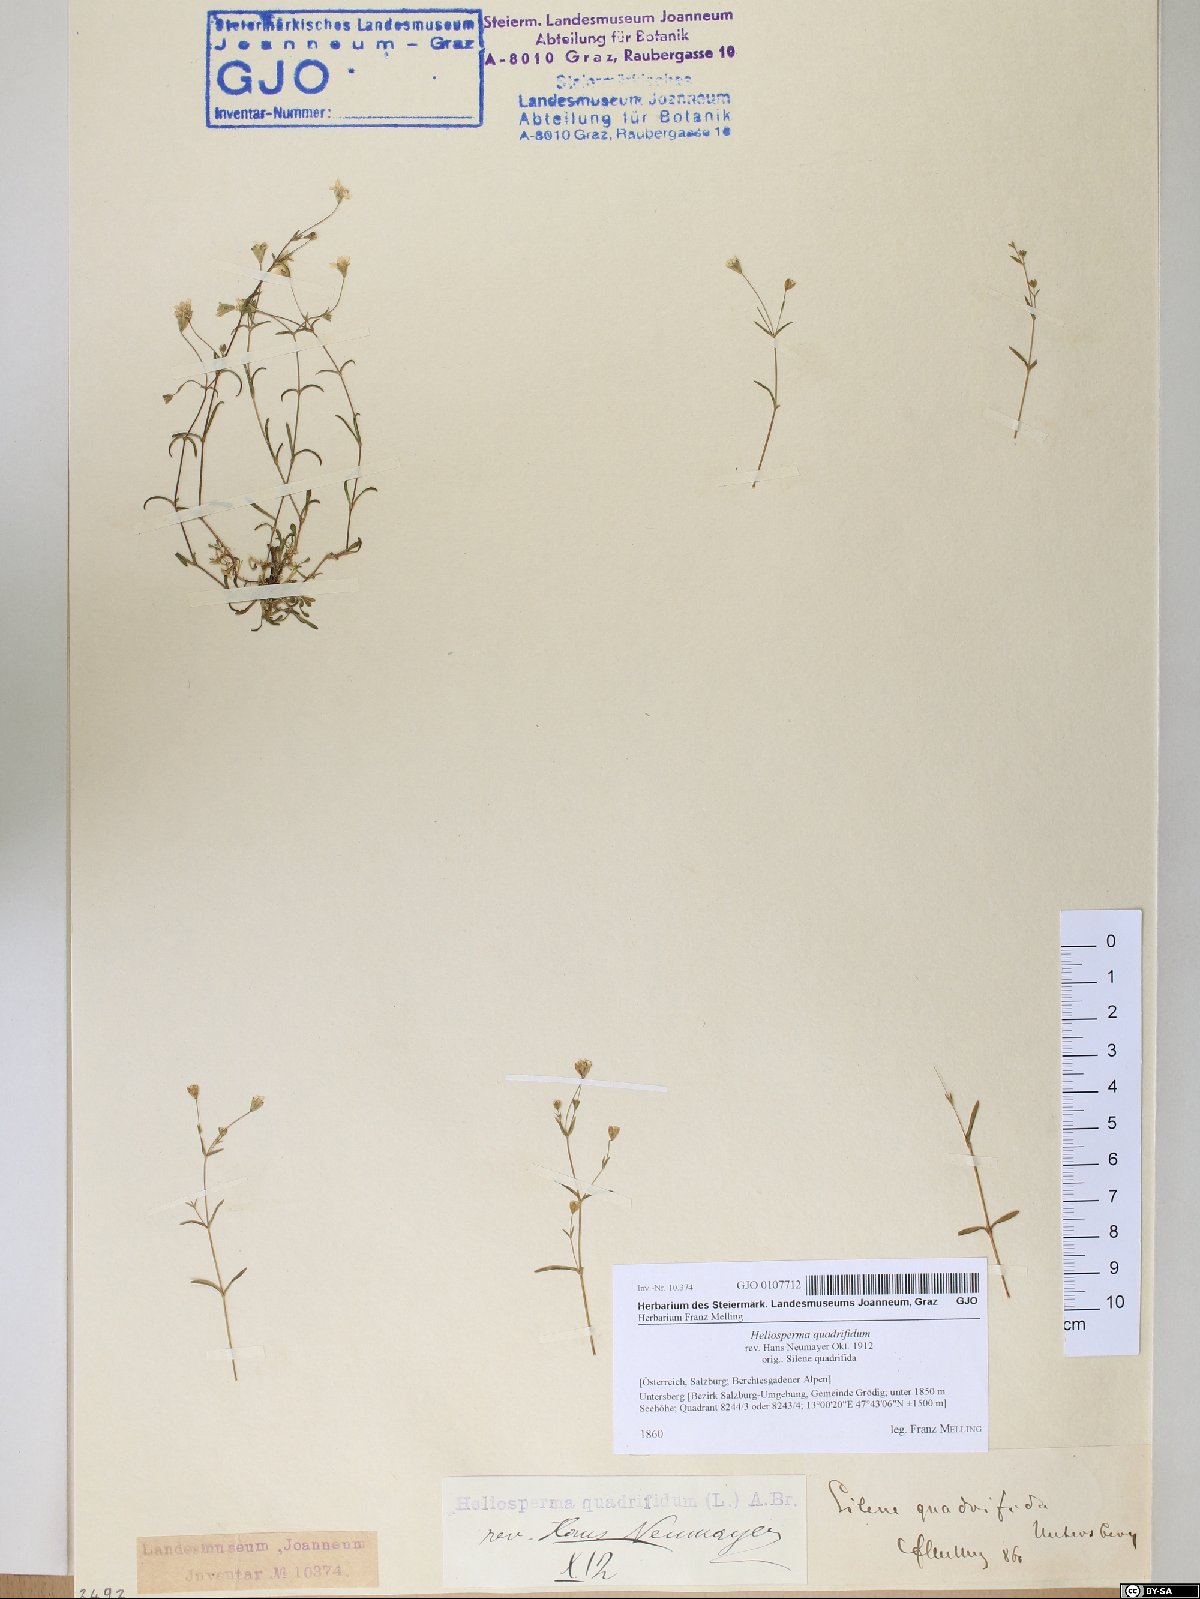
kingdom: Plantae
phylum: Tracheophyta
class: Magnoliopsida
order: Caryophyllales
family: Caryophyllaceae
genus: Heliosperma
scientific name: Heliosperma alpestre
